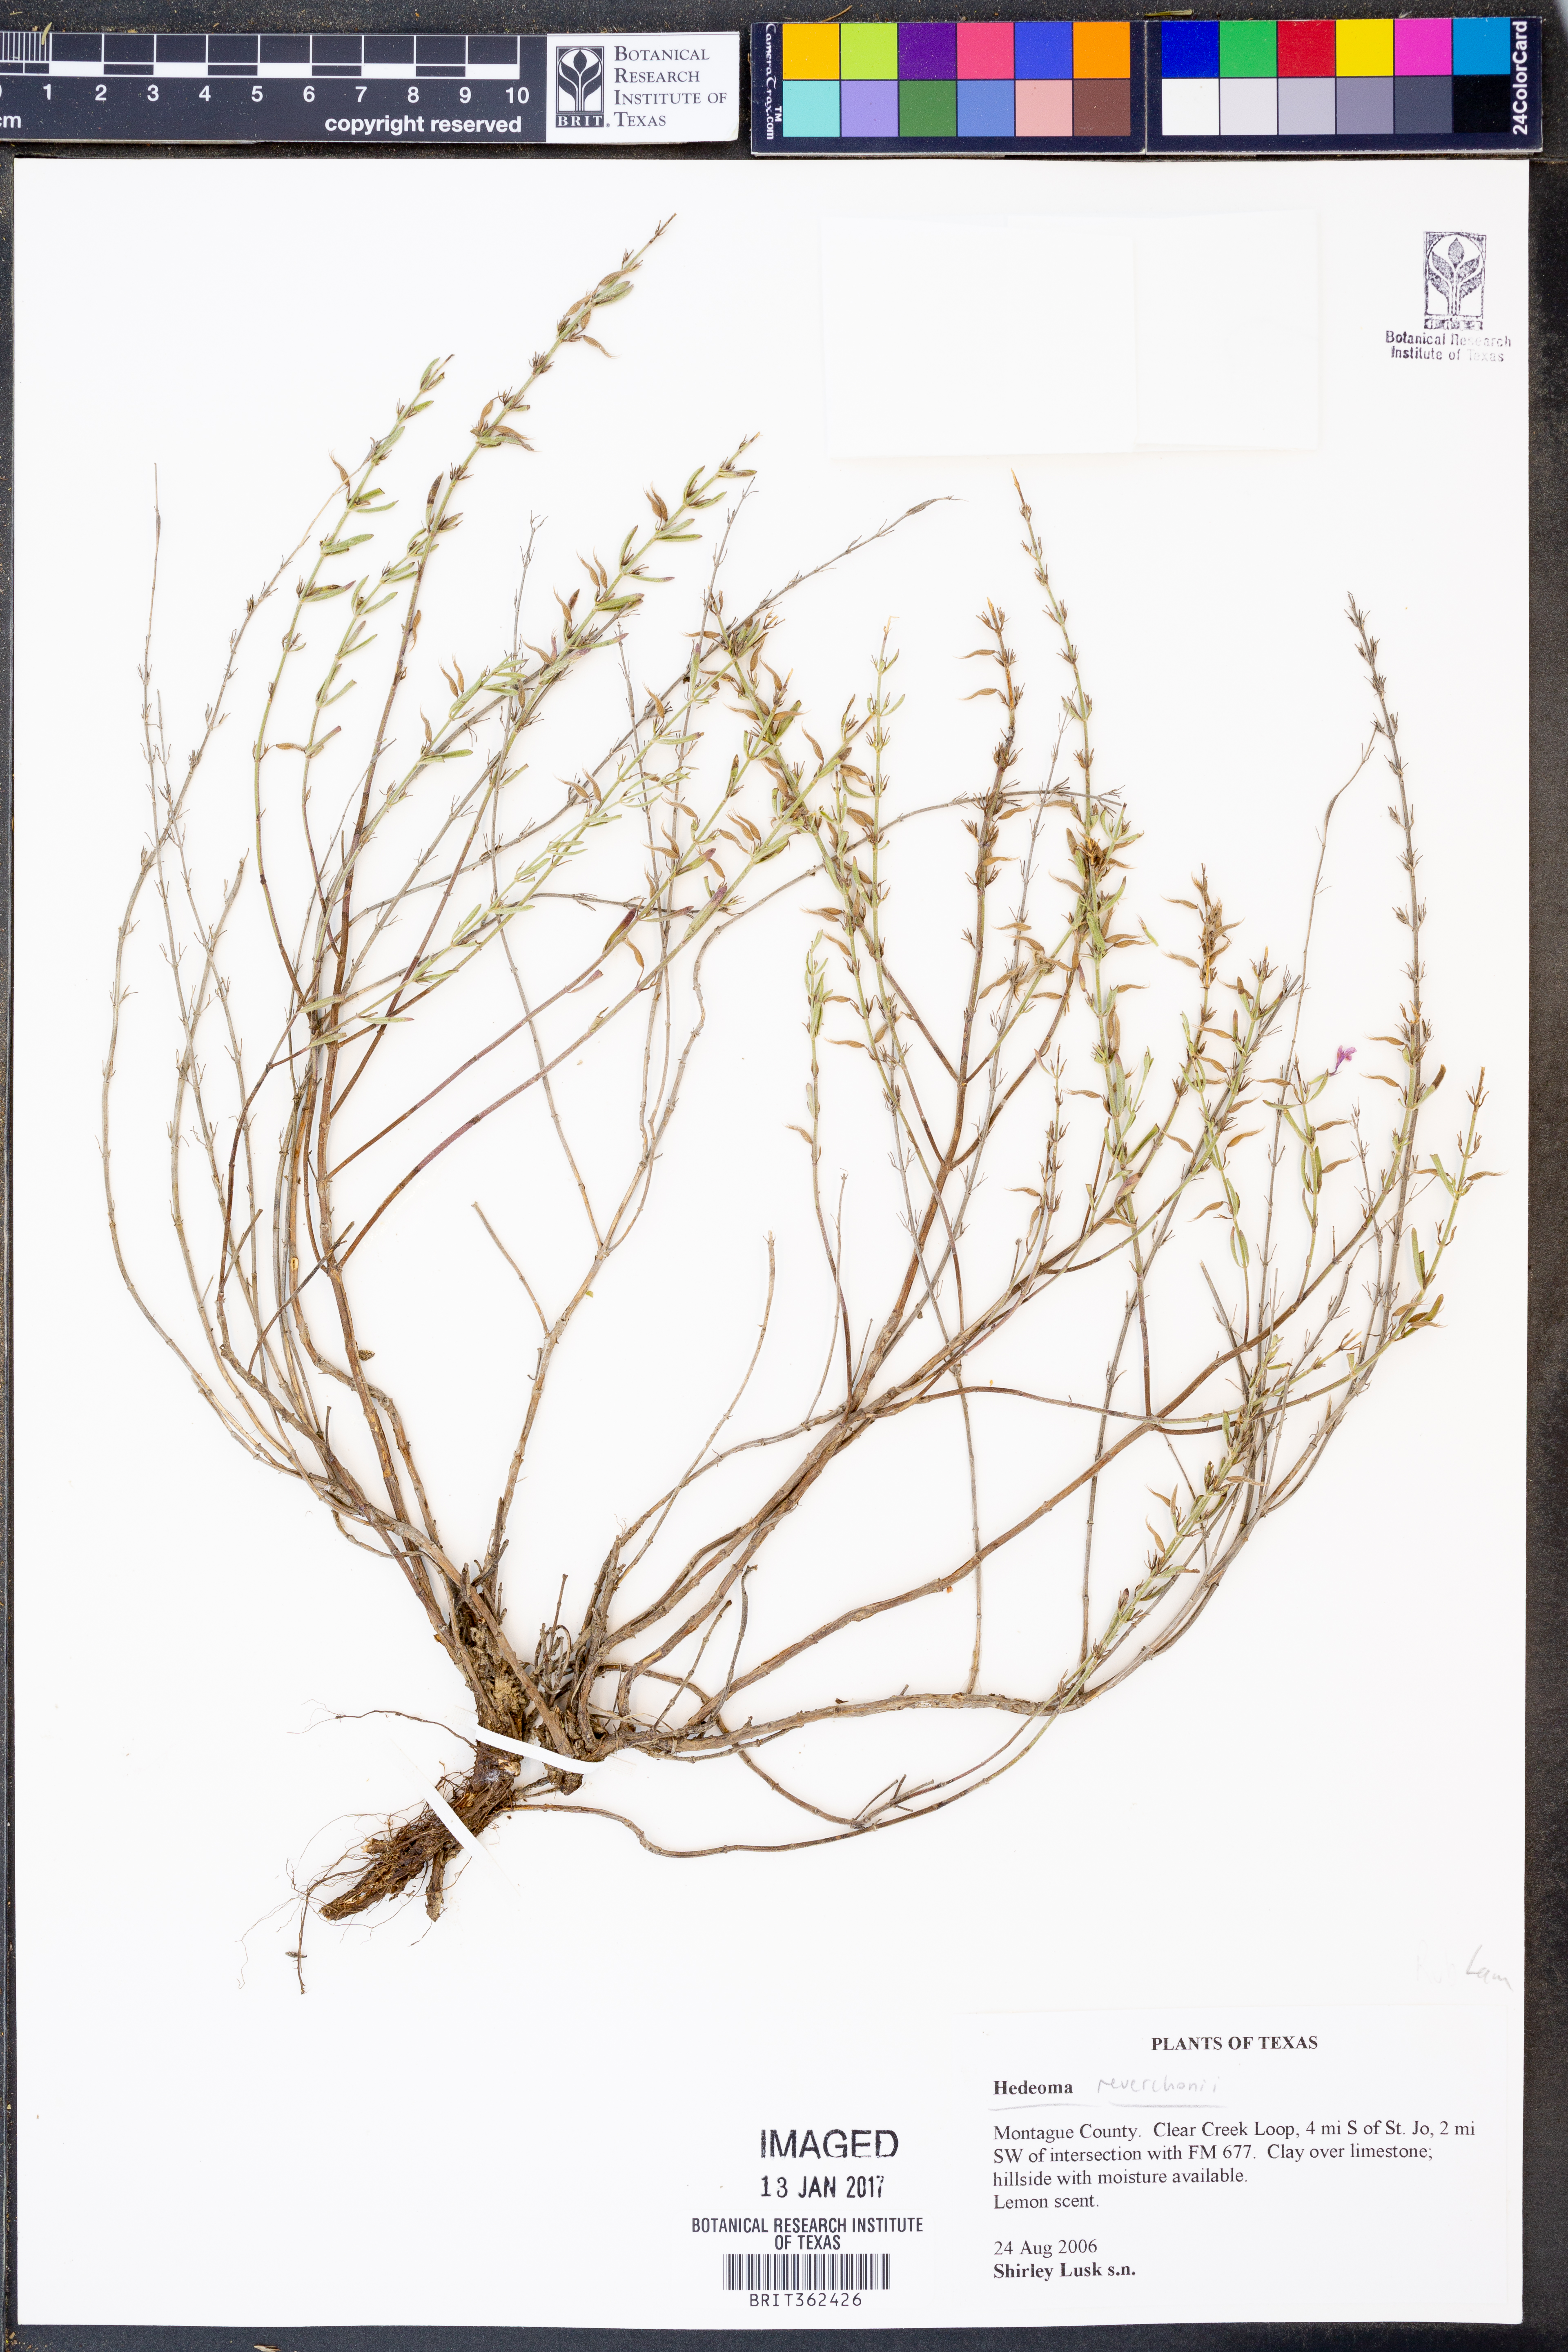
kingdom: Plantae
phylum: Tracheophyta
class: Magnoliopsida
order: Lamiales
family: Lamiaceae
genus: Hedeoma
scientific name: Hedeoma reverchonii
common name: Reverchon's false penny-royal
